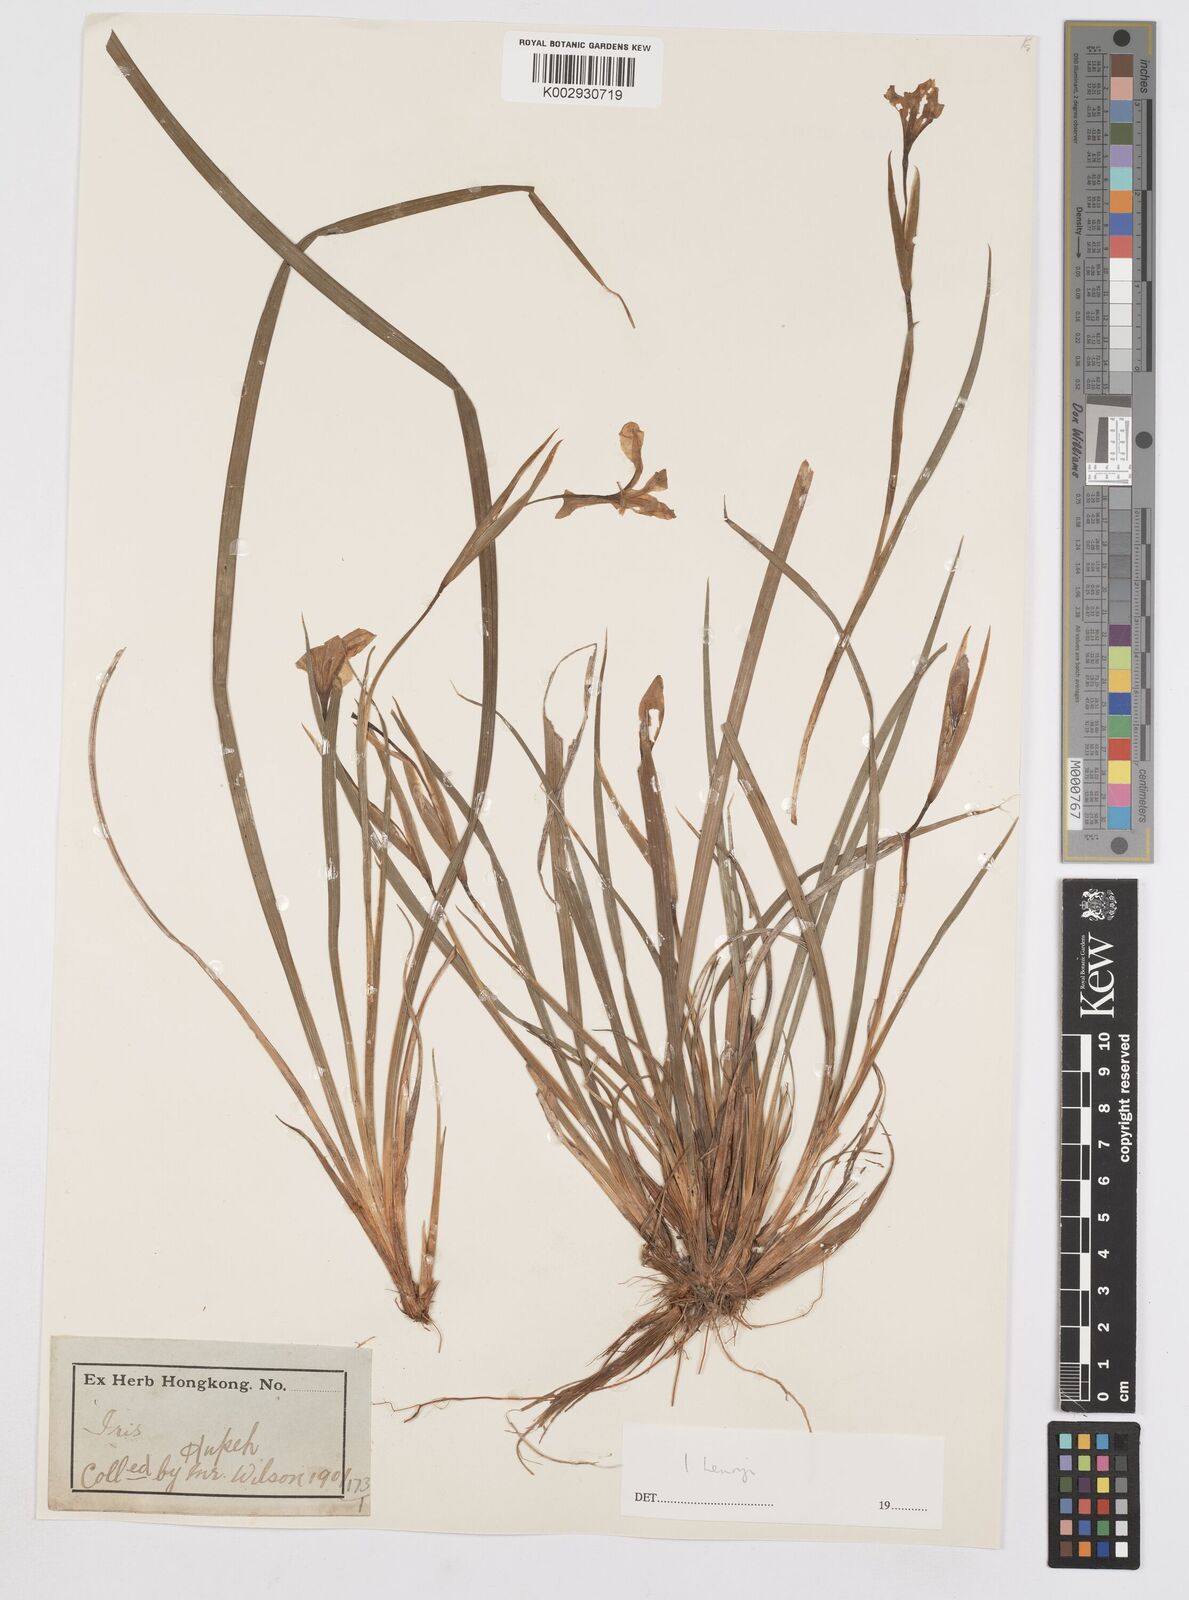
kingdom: Plantae
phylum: Tracheophyta
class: Liliopsida
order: Asparagales
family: Iridaceae
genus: Iris
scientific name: Iris henryi
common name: Long-pedicel iris
